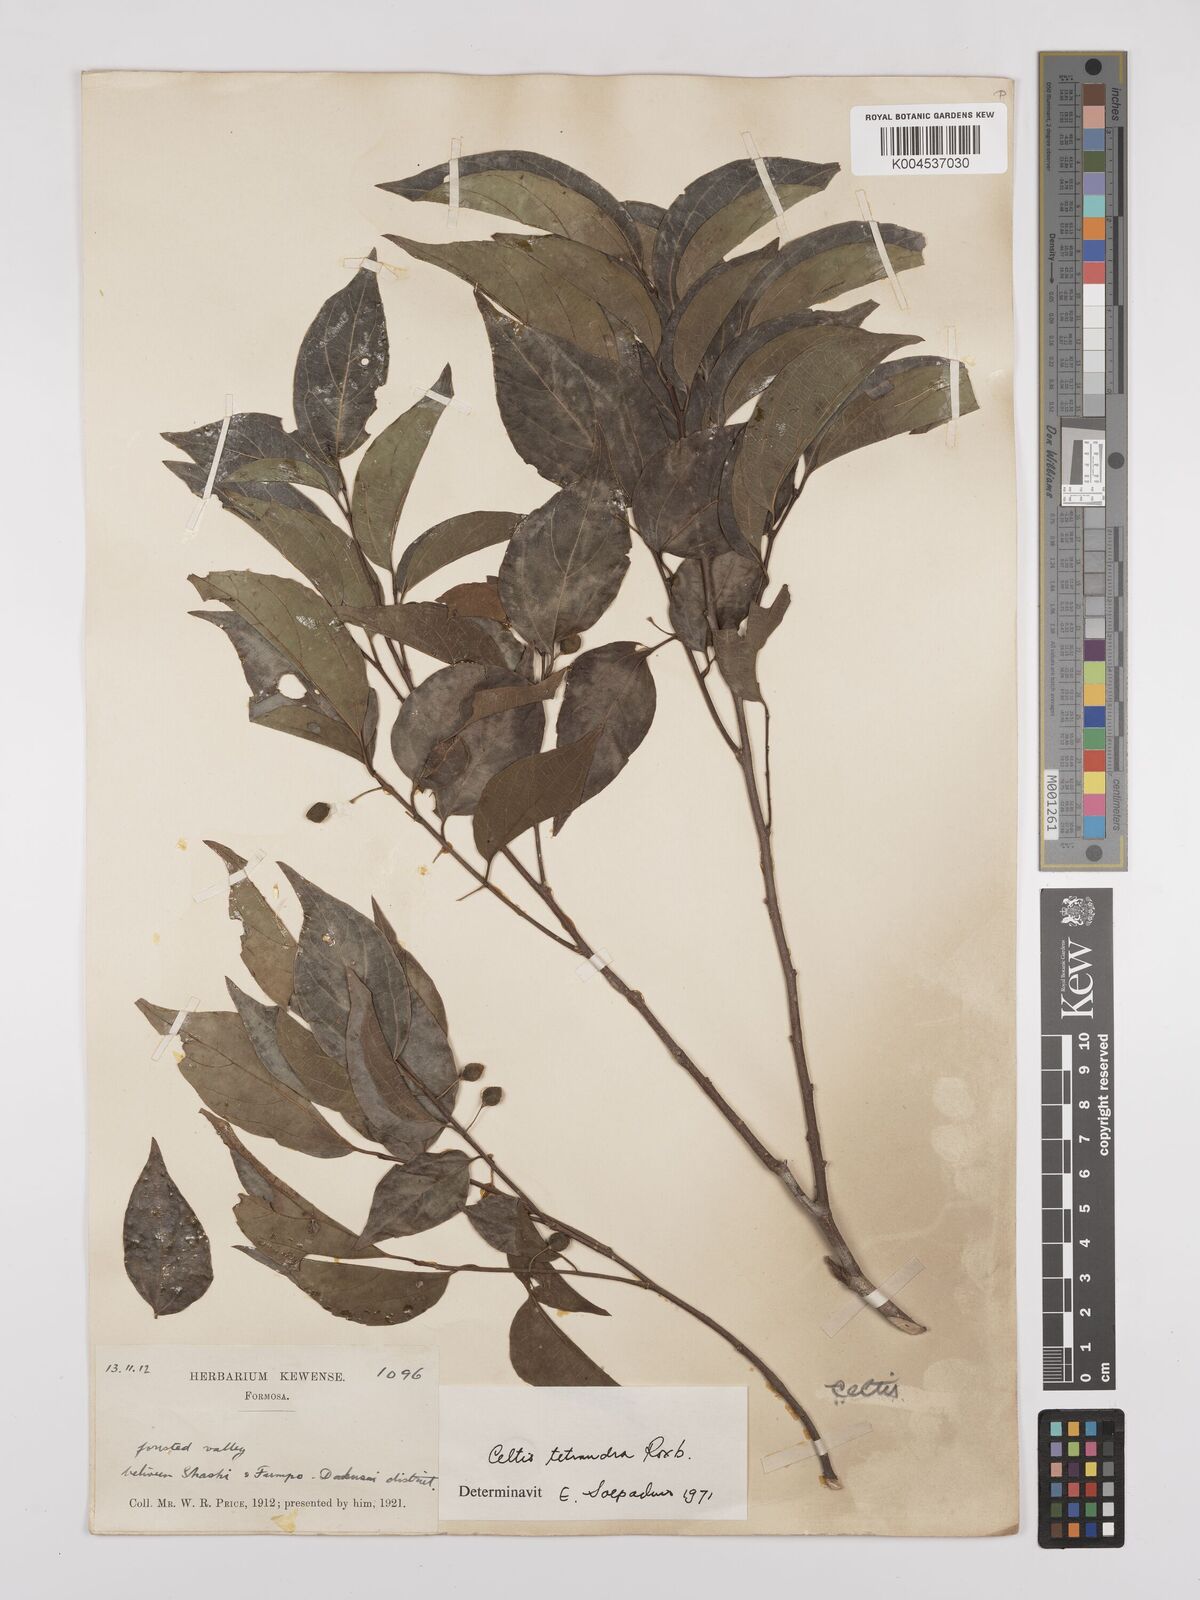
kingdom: Plantae
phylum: Tracheophyta
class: Magnoliopsida
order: Rosales
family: Cannabaceae
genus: Celtis
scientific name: Celtis tetrandra
